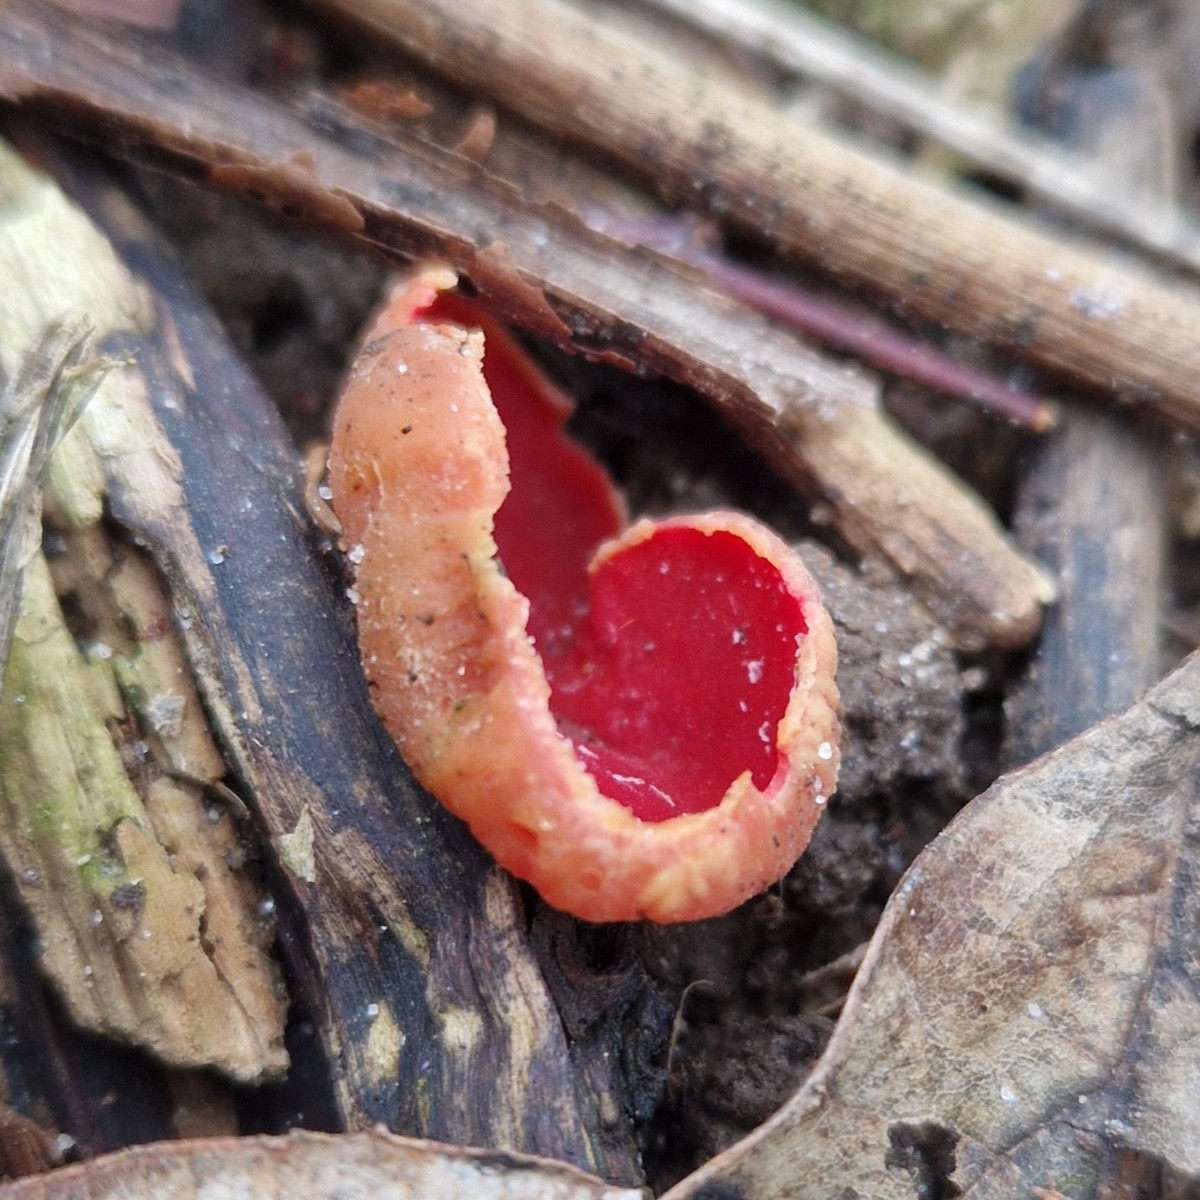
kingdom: Fungi
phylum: Ascomycota
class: Pezizomycetes
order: Pezizales
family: Sarcoscyphaceae
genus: Sarcoscypha
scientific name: Sarcoscypha austriaca
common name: krølhåret pragtbæger
